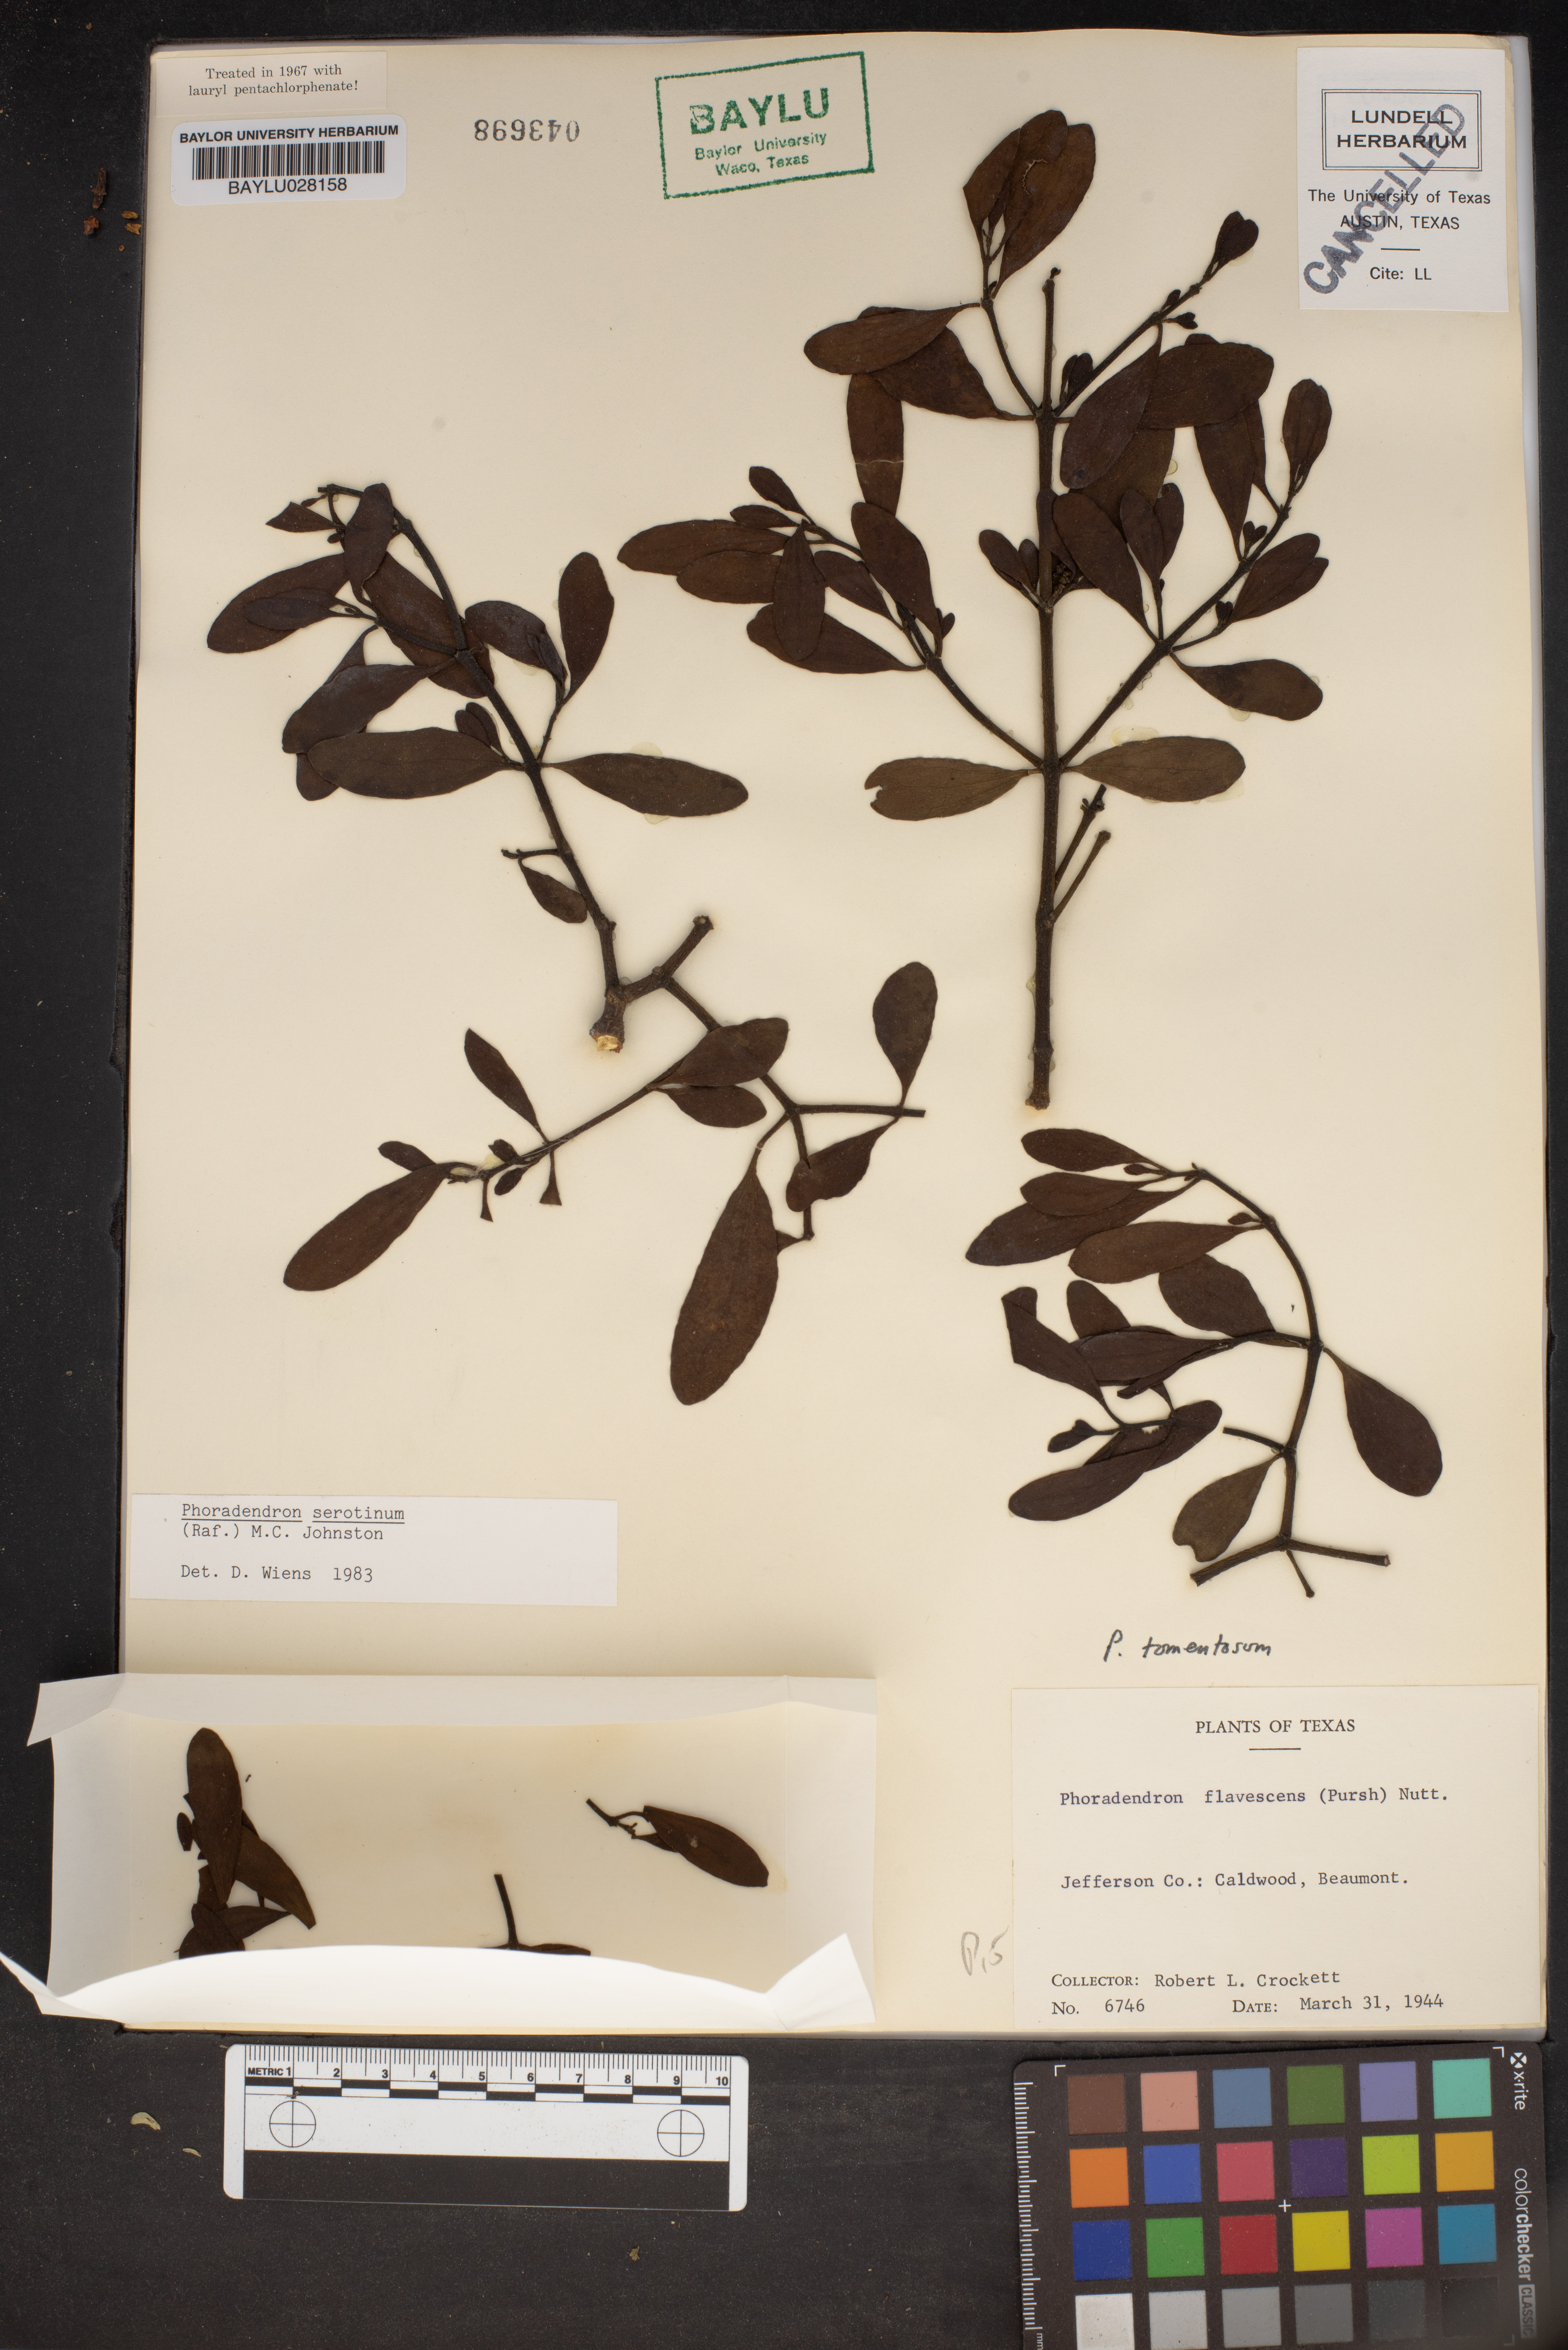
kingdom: Plantae
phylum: Tracheophyta
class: Magnoliopsida
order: Santalales
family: Viscaceae
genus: Phoradendron
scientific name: Phoradendron leucarpum
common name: Pacific mistletoe
